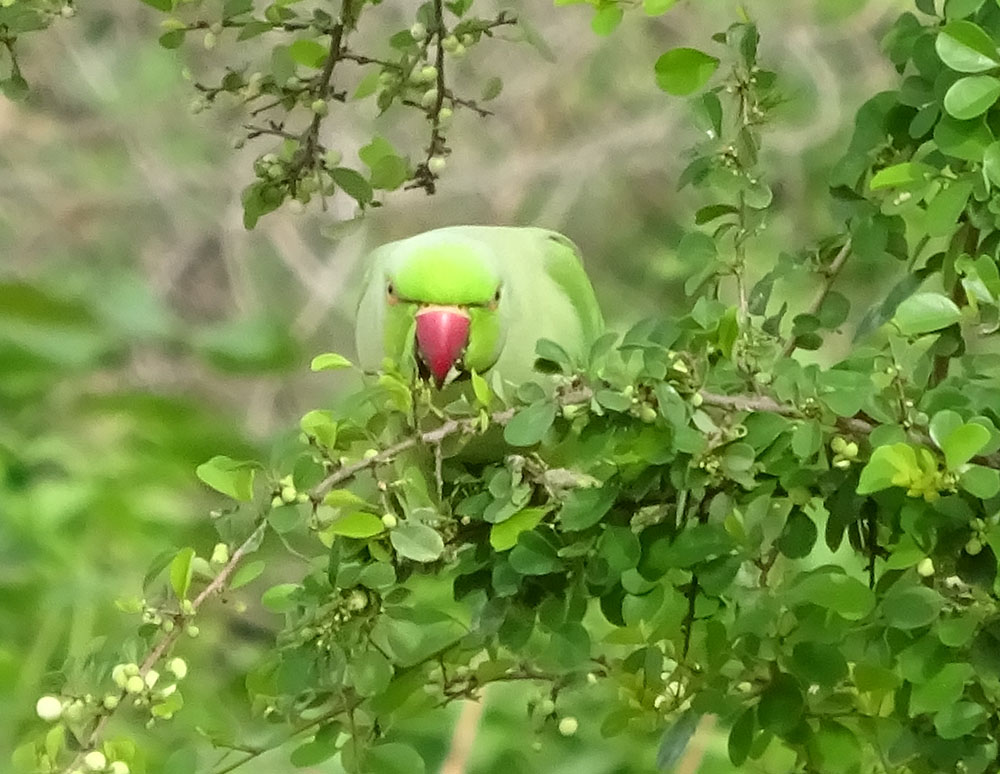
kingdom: Animalia
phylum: Chordata
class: Aves
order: Psittaciformes
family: Psittacidae
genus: Psittacula
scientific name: Psittacula krameri
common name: Rose-ringed parakeet
